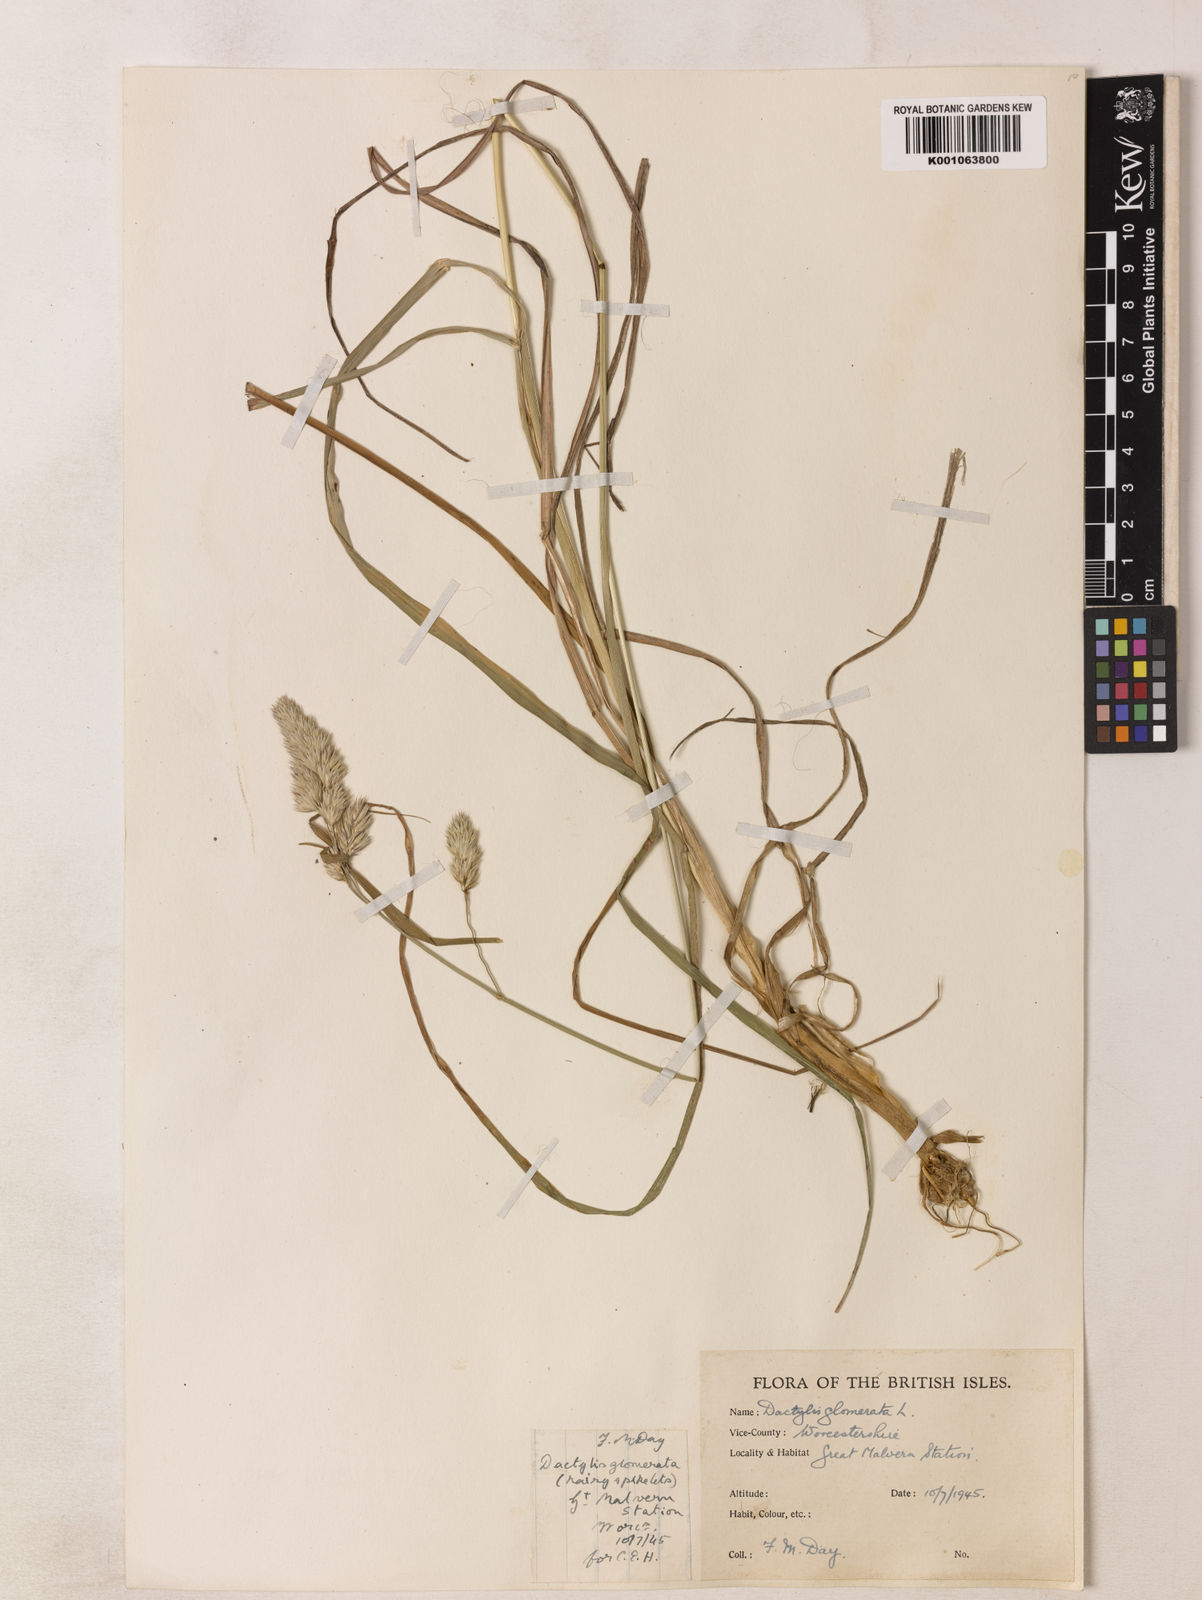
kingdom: Plantae
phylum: Tracheophyta
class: Liliopsida
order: Poales
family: Poaceae
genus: Dactylis
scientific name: Dactylis glomerata
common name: Orchardgrass
